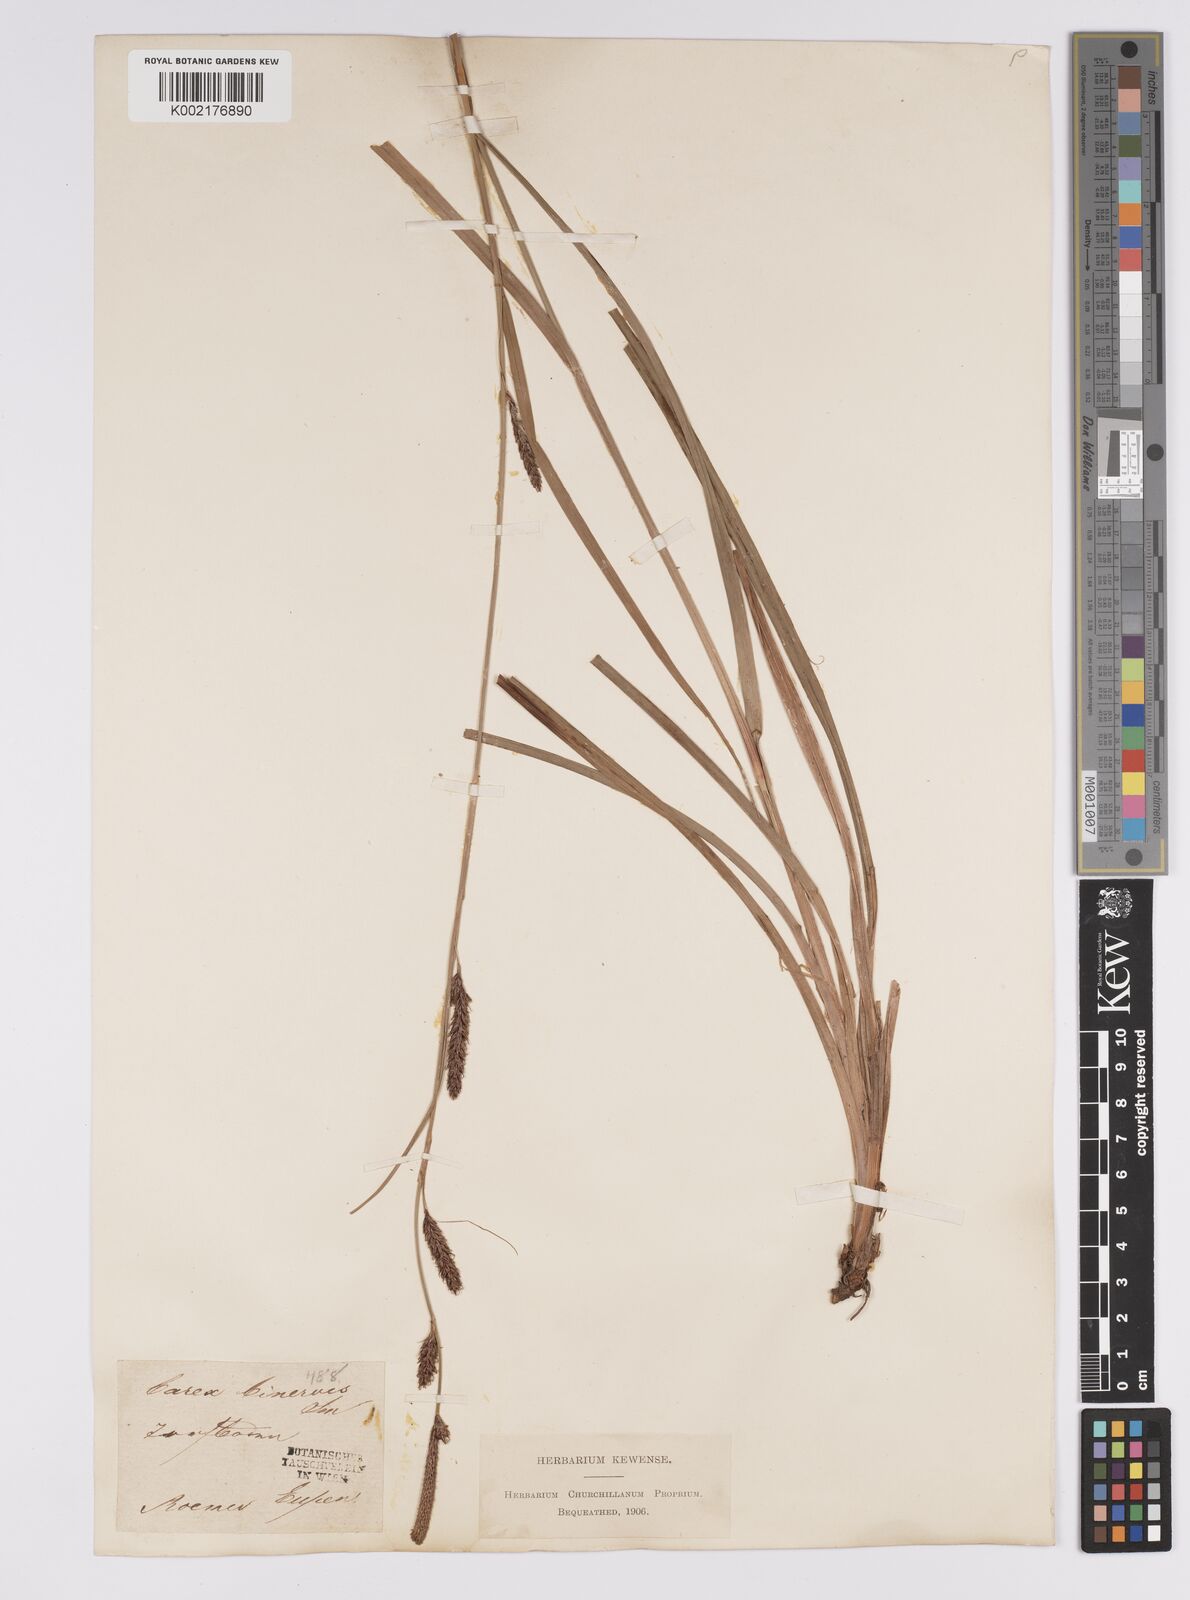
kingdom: Plantae
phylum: Tracheophyta
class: Liliopsida
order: Poales
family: Cyperaceae
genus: Carex
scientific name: Carex binervis
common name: Green-ribbed sedge
